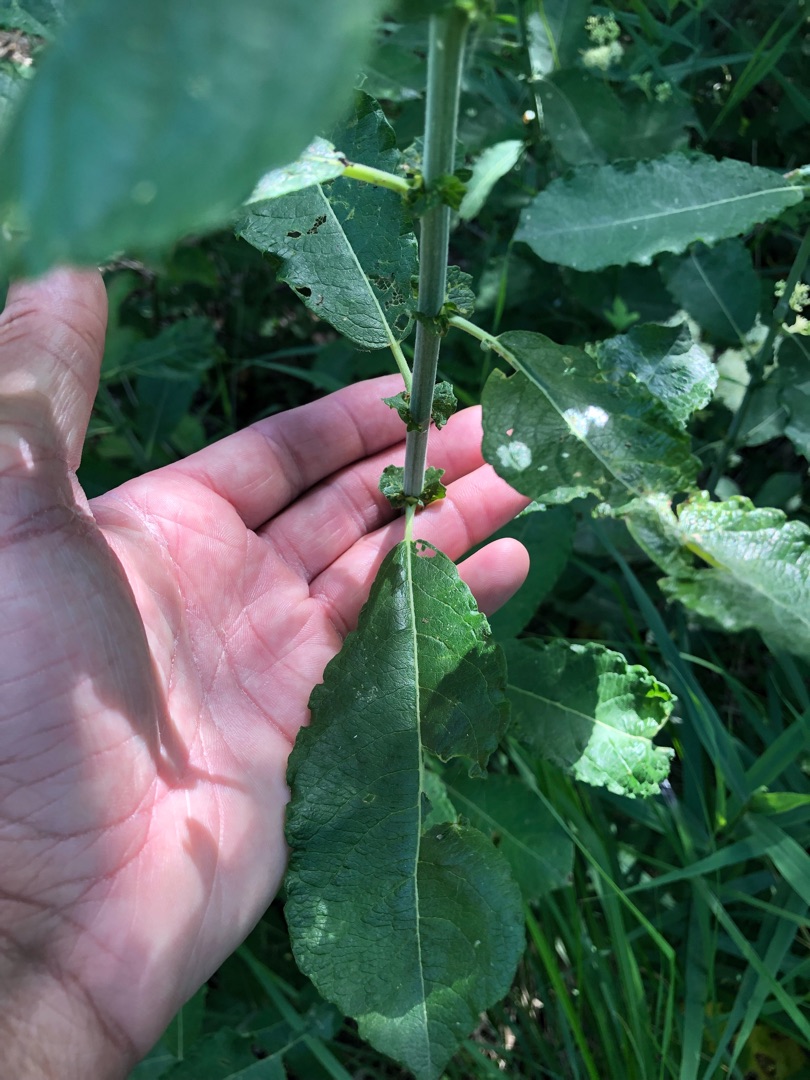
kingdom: Plantae
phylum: Tracheophyta
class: Magnoliopsida
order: Malpighiales
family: Salicaceae
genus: Salix
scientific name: Salix cinerea
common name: Grå-pil
